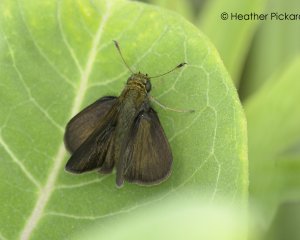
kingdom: Animalia
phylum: Arthropoda
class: Insecta
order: Lepidoptera
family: Hesperiidae
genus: Euphyes
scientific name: Euphyes vestris
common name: Dun Skipper
